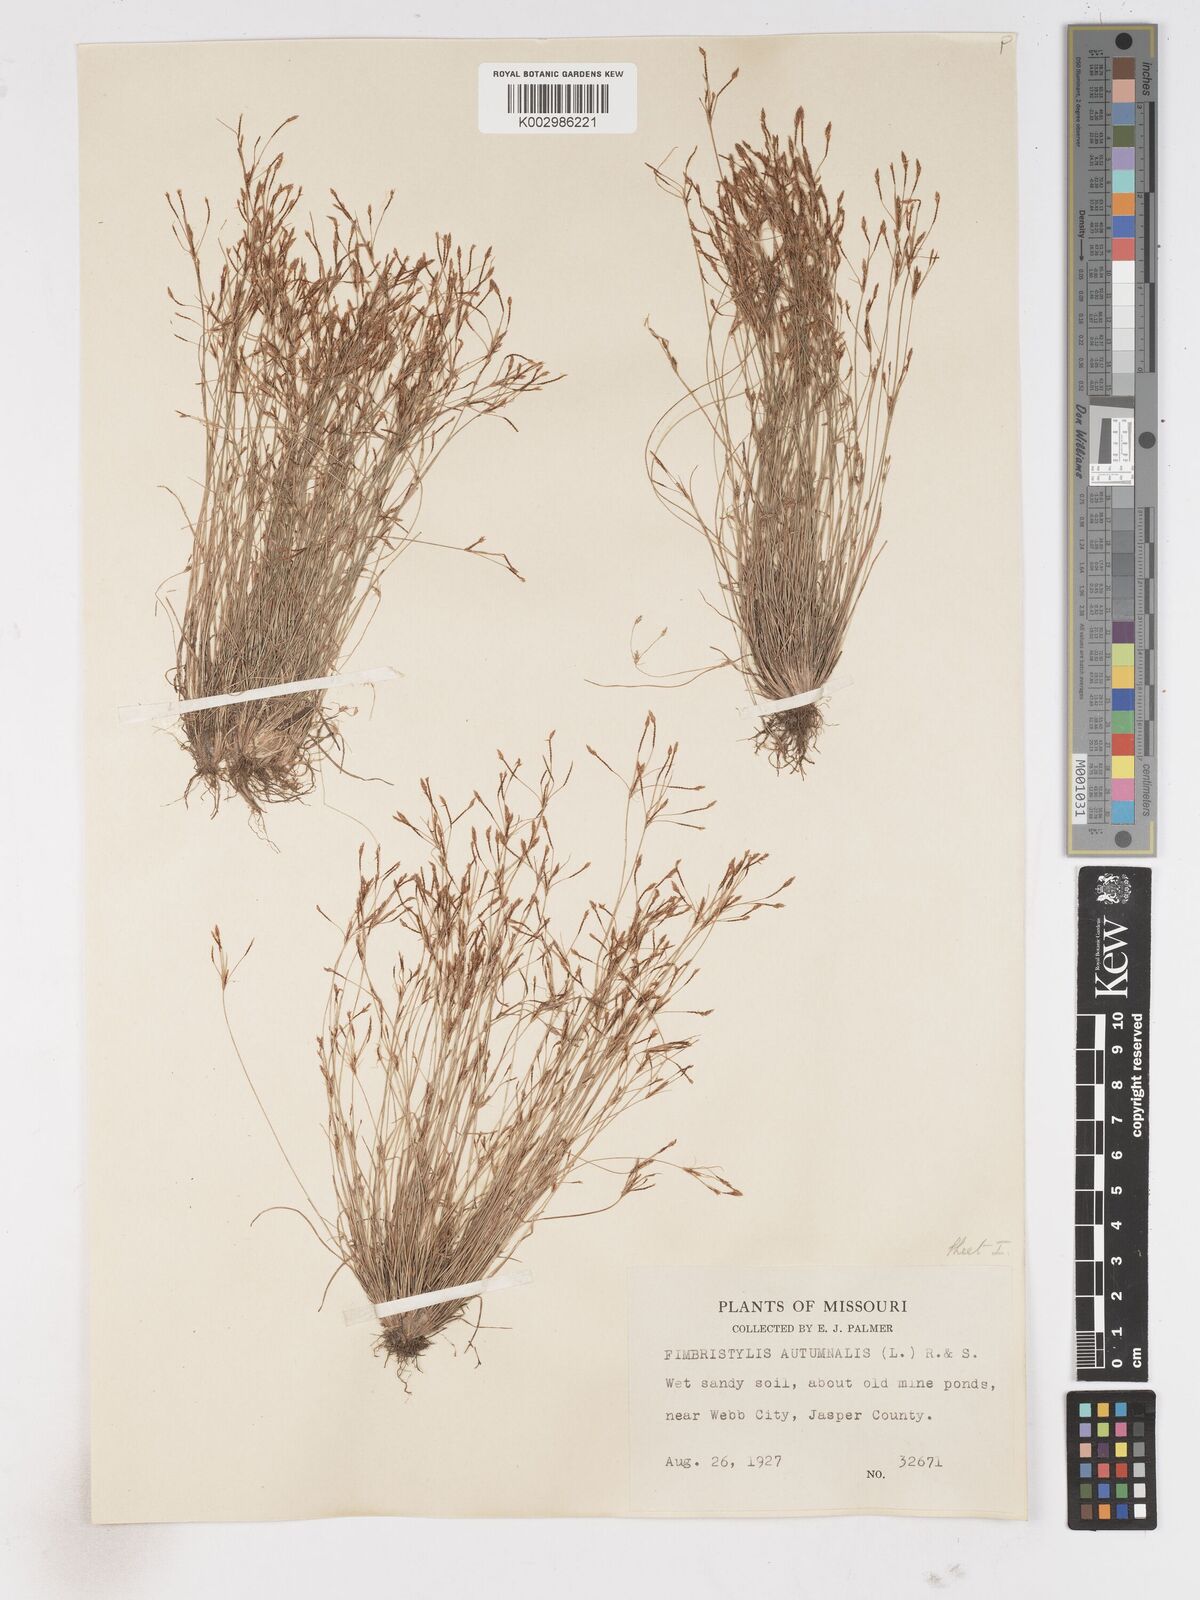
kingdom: Plantae
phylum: Tracheophyta
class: Liliopsida
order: Poales
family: Cyperaceae
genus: Fimbristylis
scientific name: Fimbristylis autumnalis
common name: Slender fimbristylis
